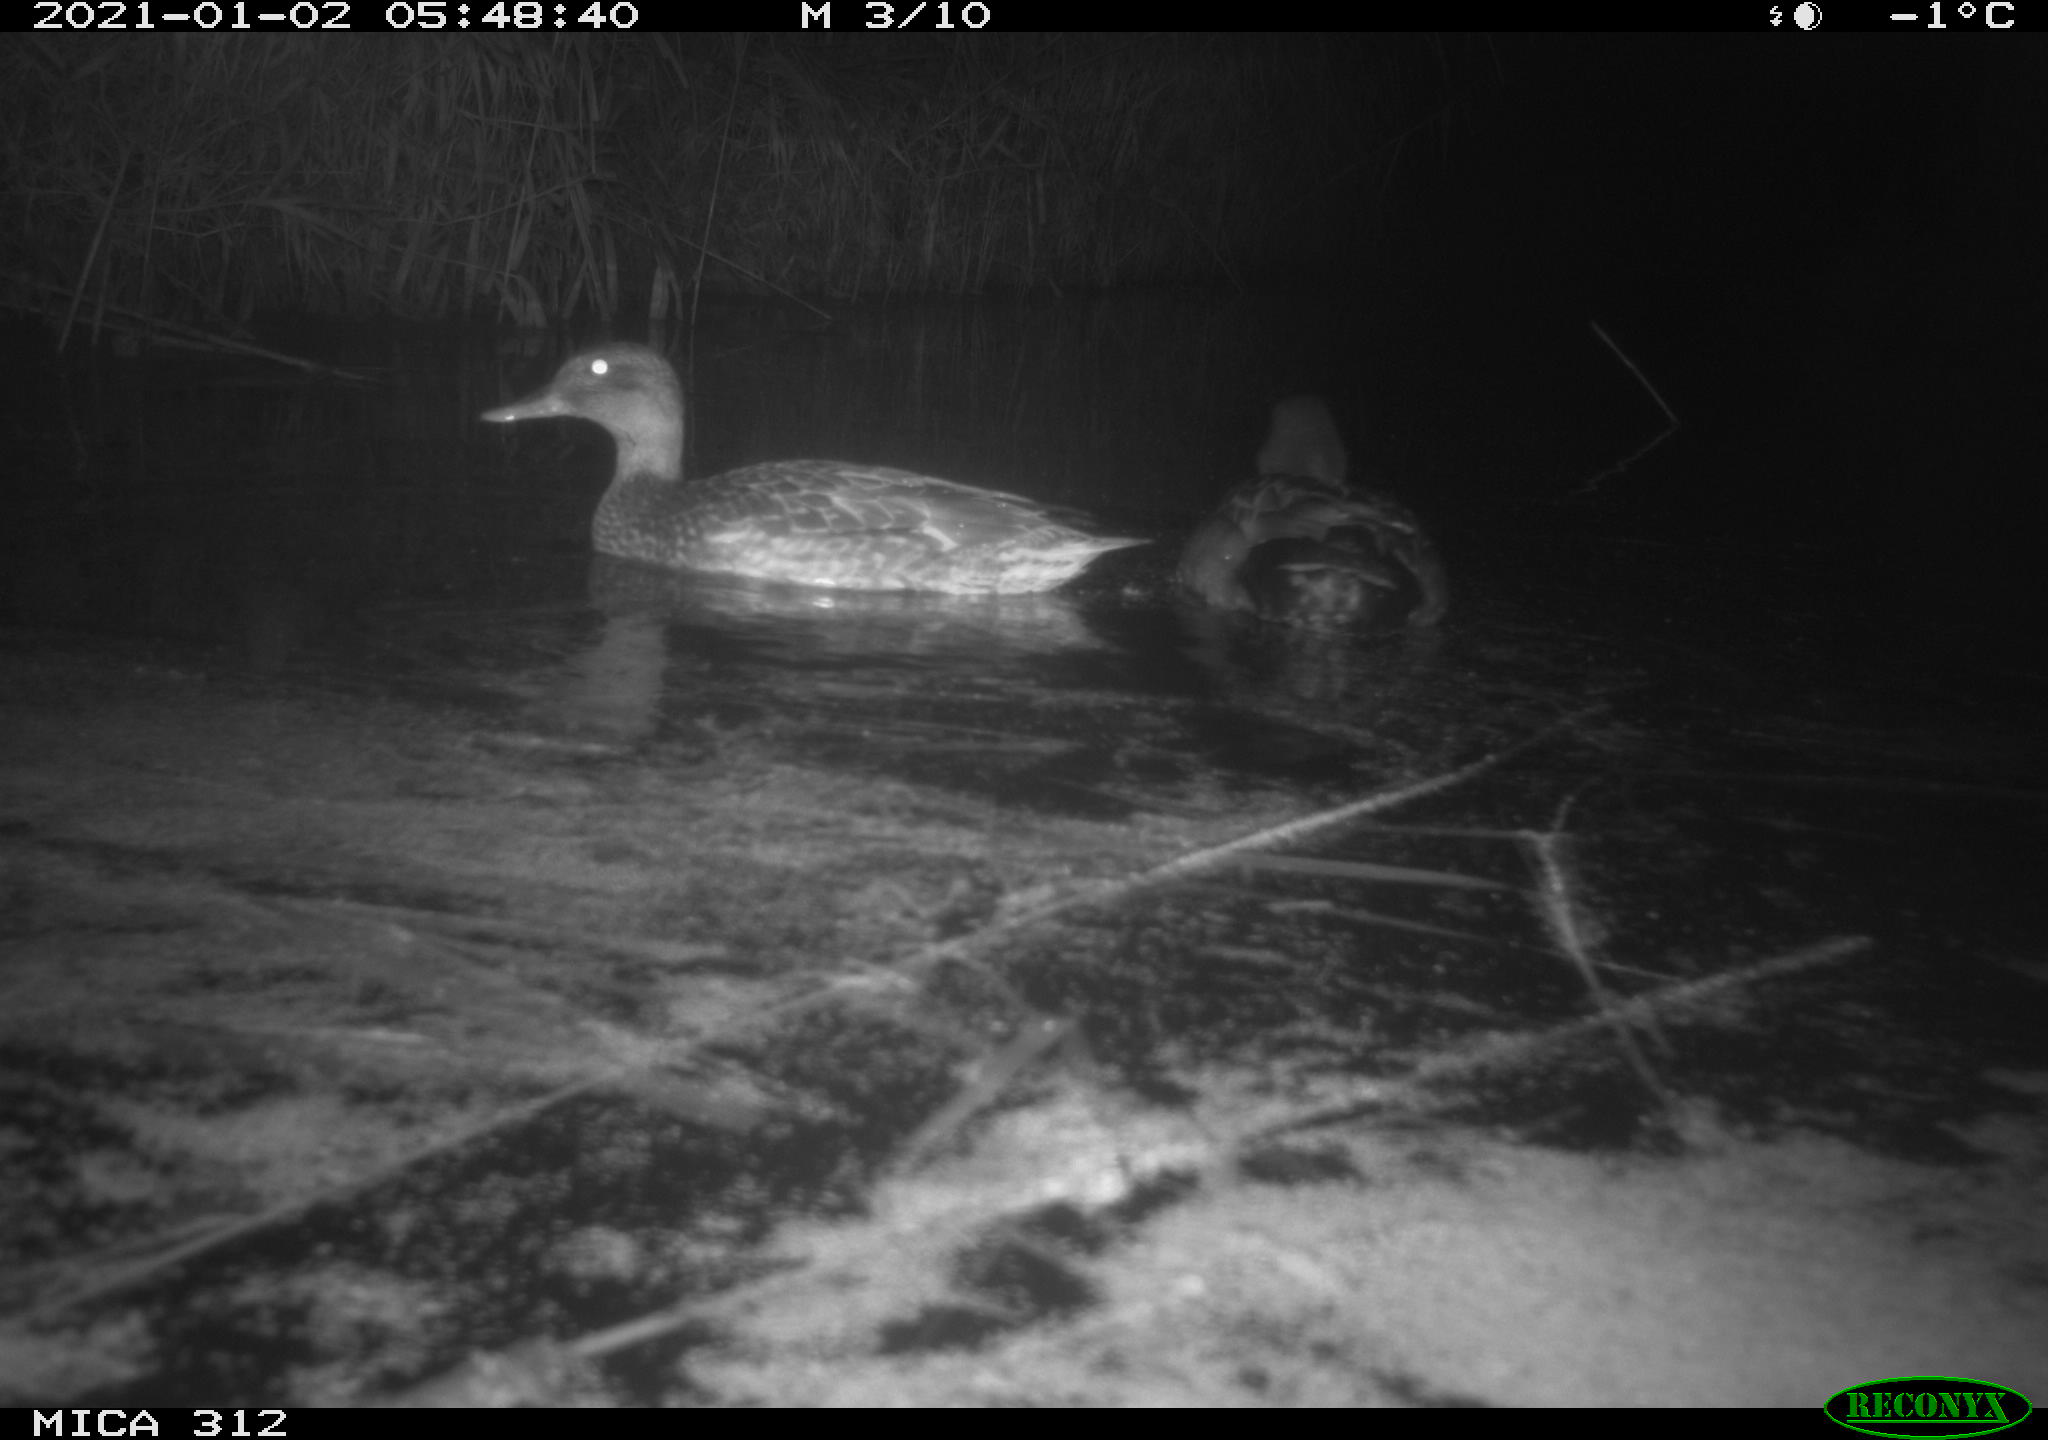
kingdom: Animalia
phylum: Chordata
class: Aves
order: Anseriformes
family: Anatidae
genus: Mareca
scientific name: Mareca strepera
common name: Gadwall
